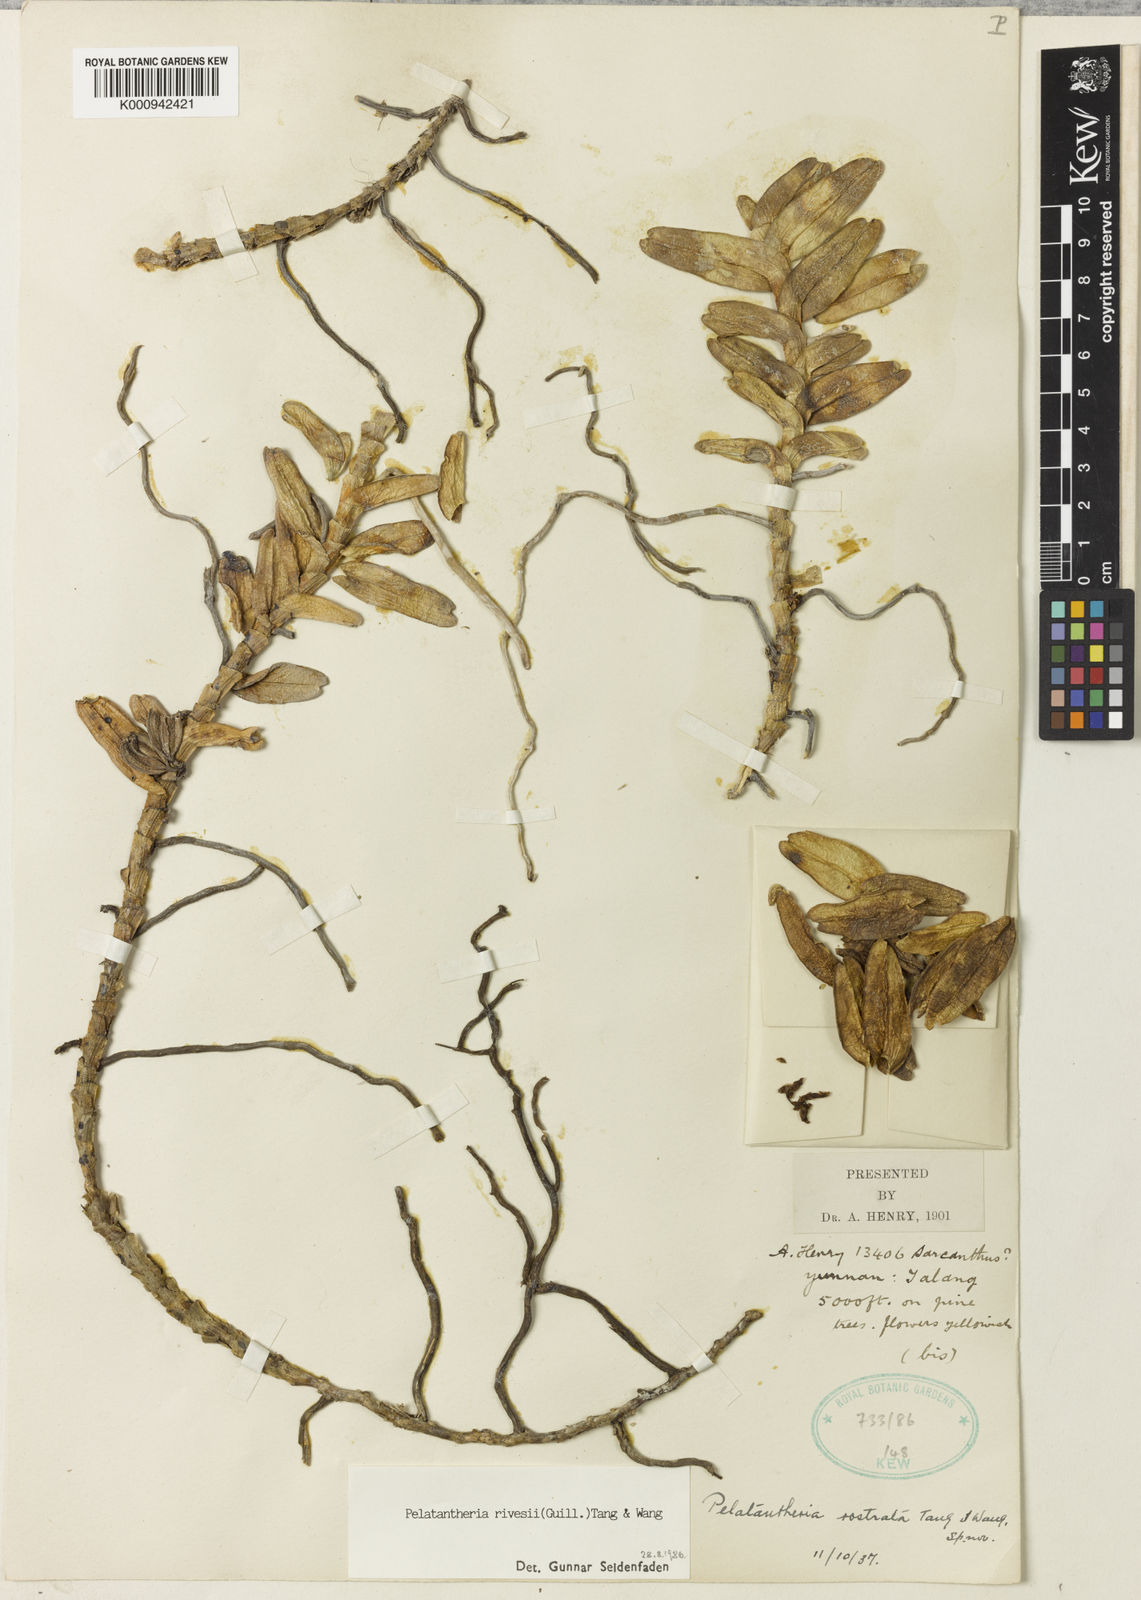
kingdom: Plantae
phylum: Tracheophyta
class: Liliopsida
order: Asparagales
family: Orchidaceae
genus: Pelatantheria
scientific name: Pelatantheria rivesii
